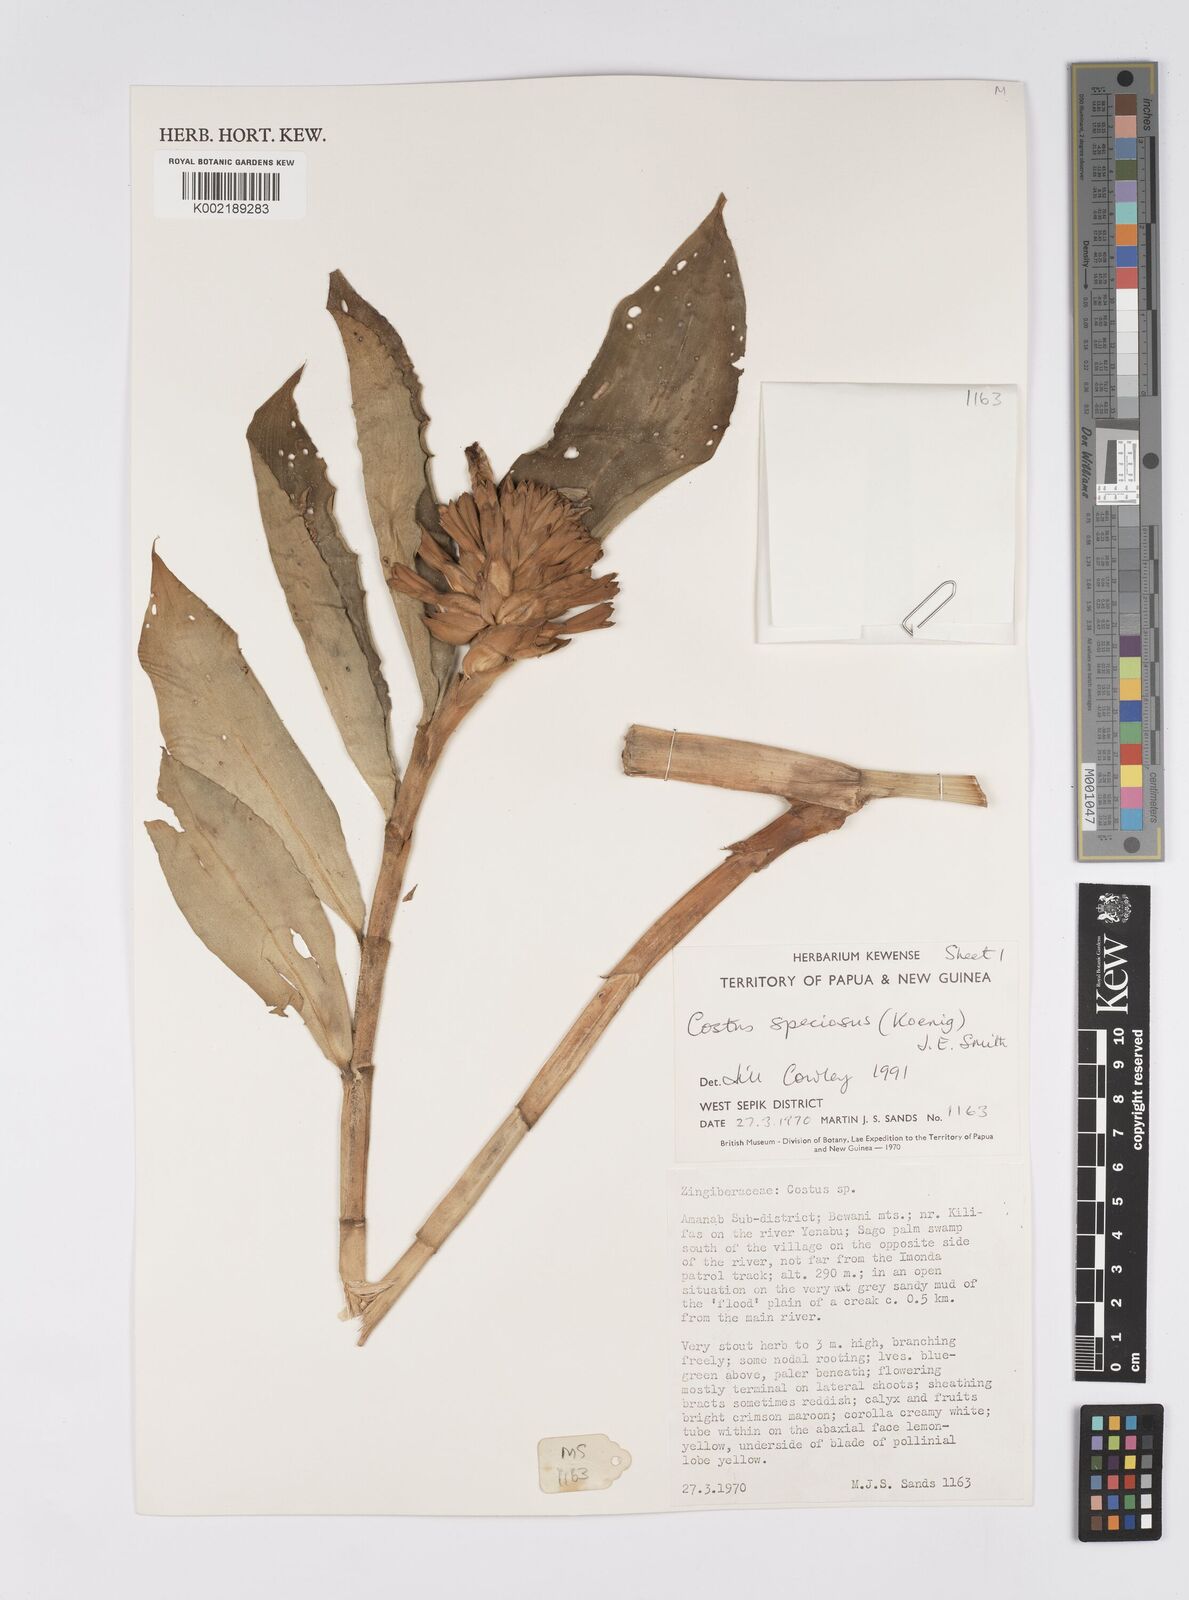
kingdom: Plantae
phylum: Tracheophyta
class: Liliopsida
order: Zingiberales
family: Costaceae
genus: Hellenia
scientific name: Hellenia speciosa
